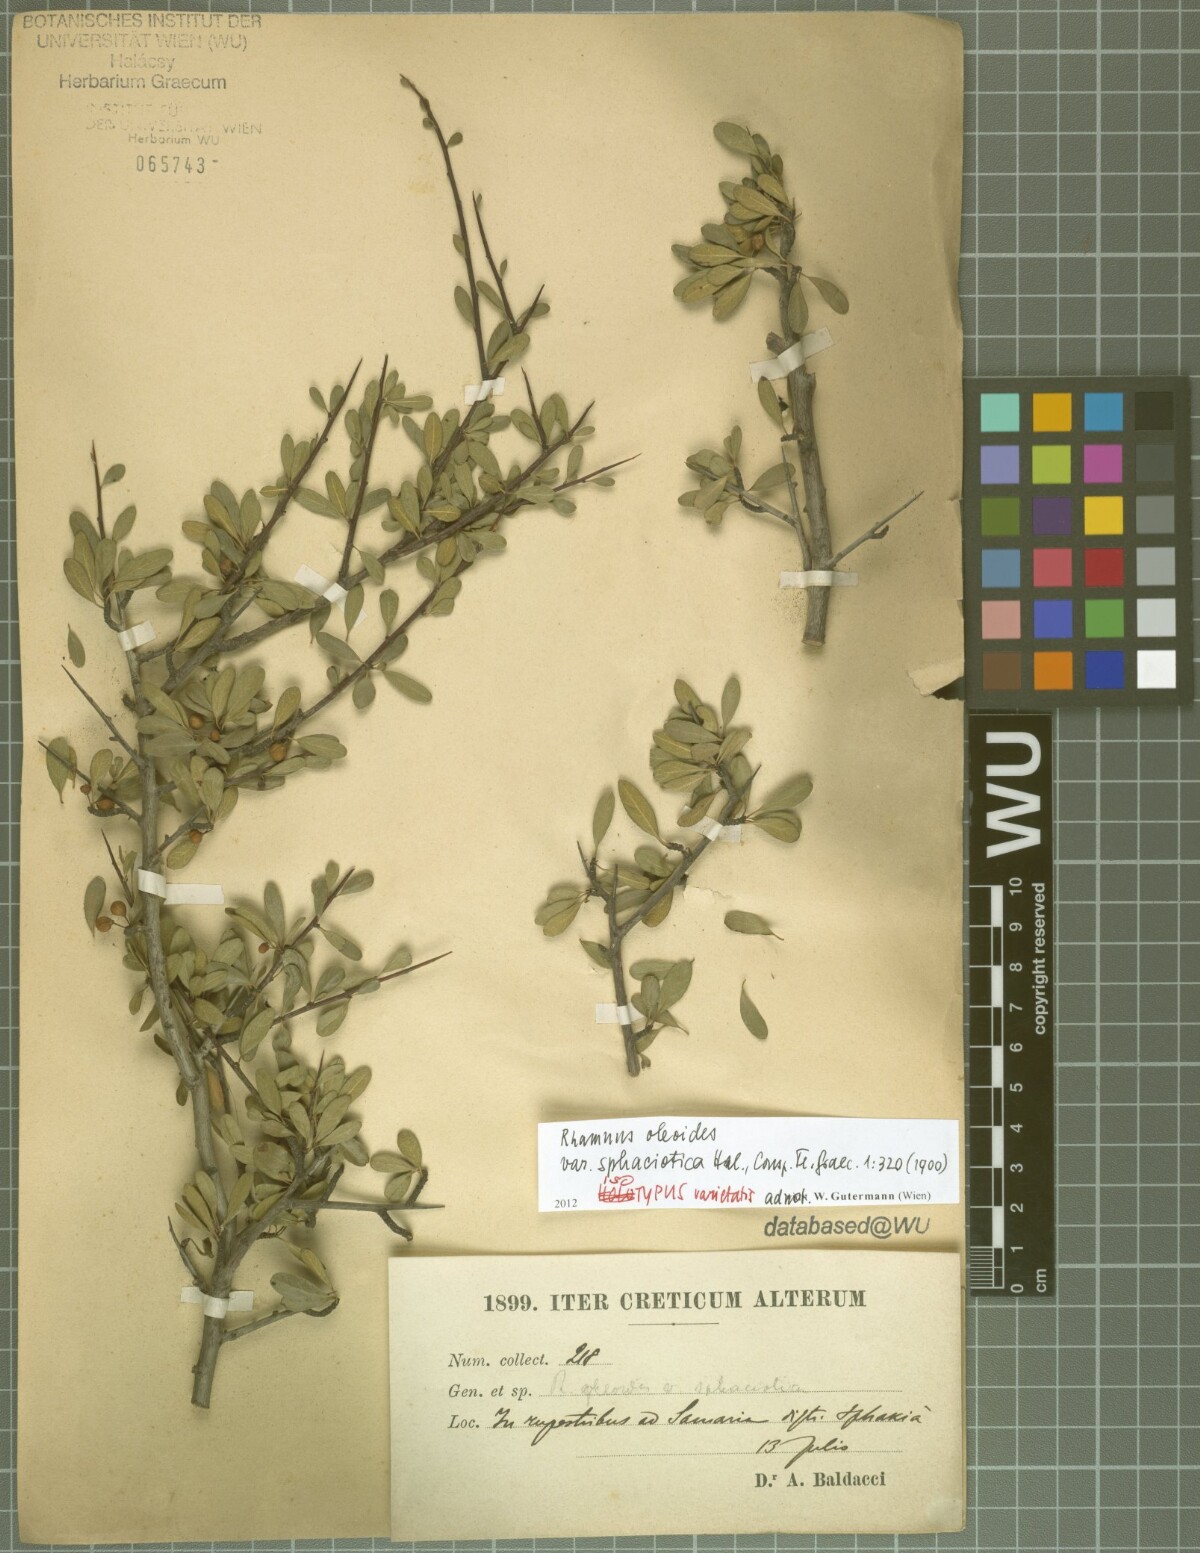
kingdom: Plantae
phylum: Tracheophyta
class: Magnoliopsida
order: Rosales
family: Rhamnaceae
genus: Rhamnus
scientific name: Rhamnus oleoides
